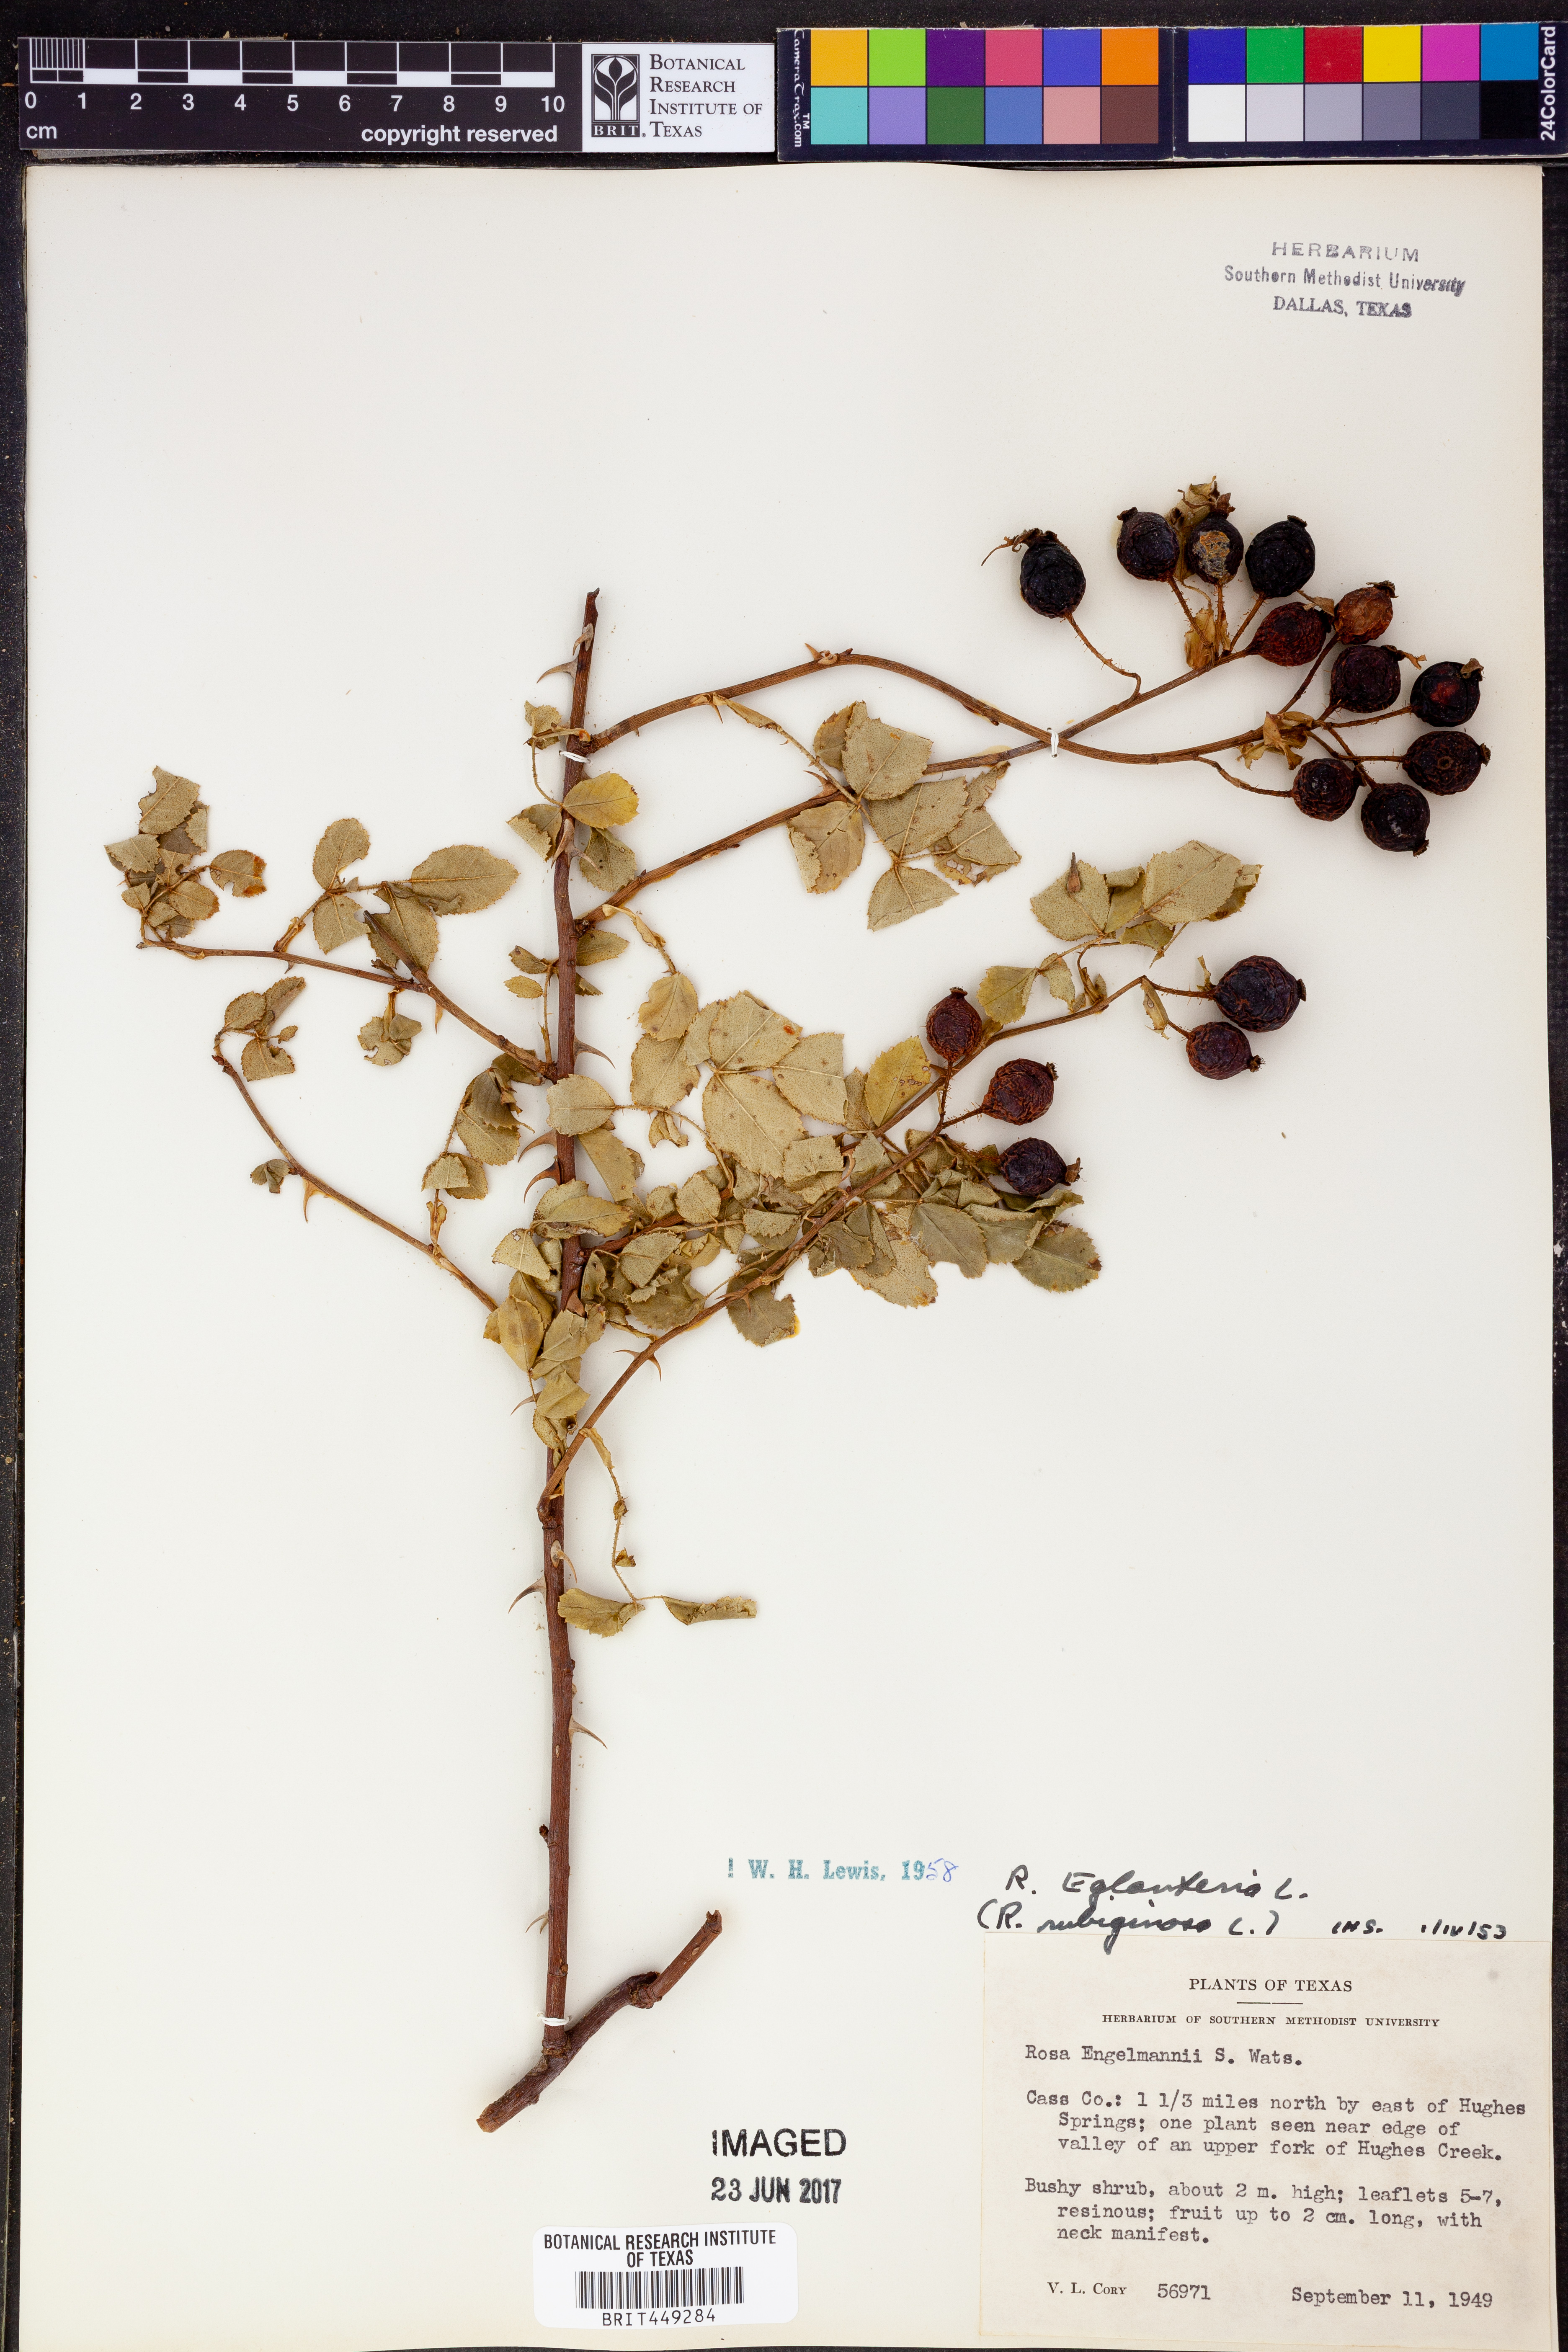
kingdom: Plantae
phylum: Tracheophyta
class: Magnoliopsida
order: Rosales
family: Rosaceae
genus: Rosa
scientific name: Rosa
